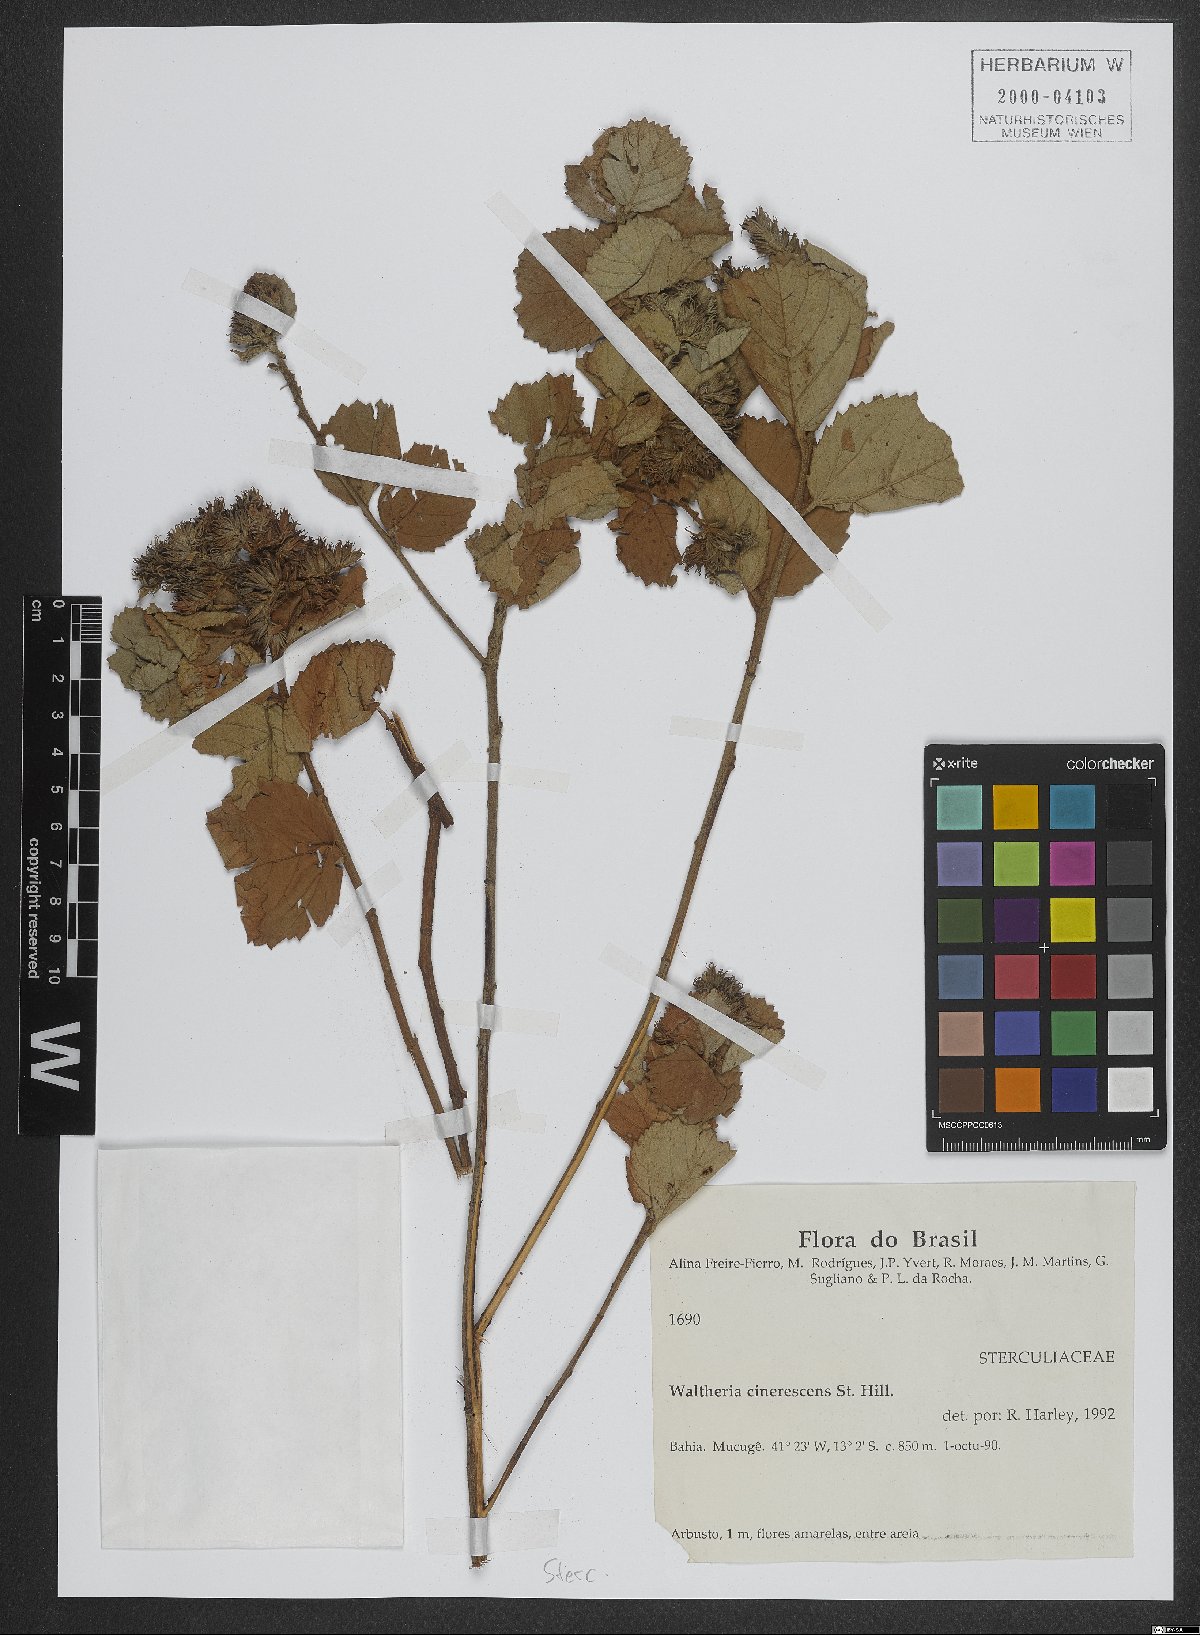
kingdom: Plantae
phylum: Tracheophyta
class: Magnoliopsida
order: Malvales
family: Malvaceae
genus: Waltheria
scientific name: Waltheria cinerescens
